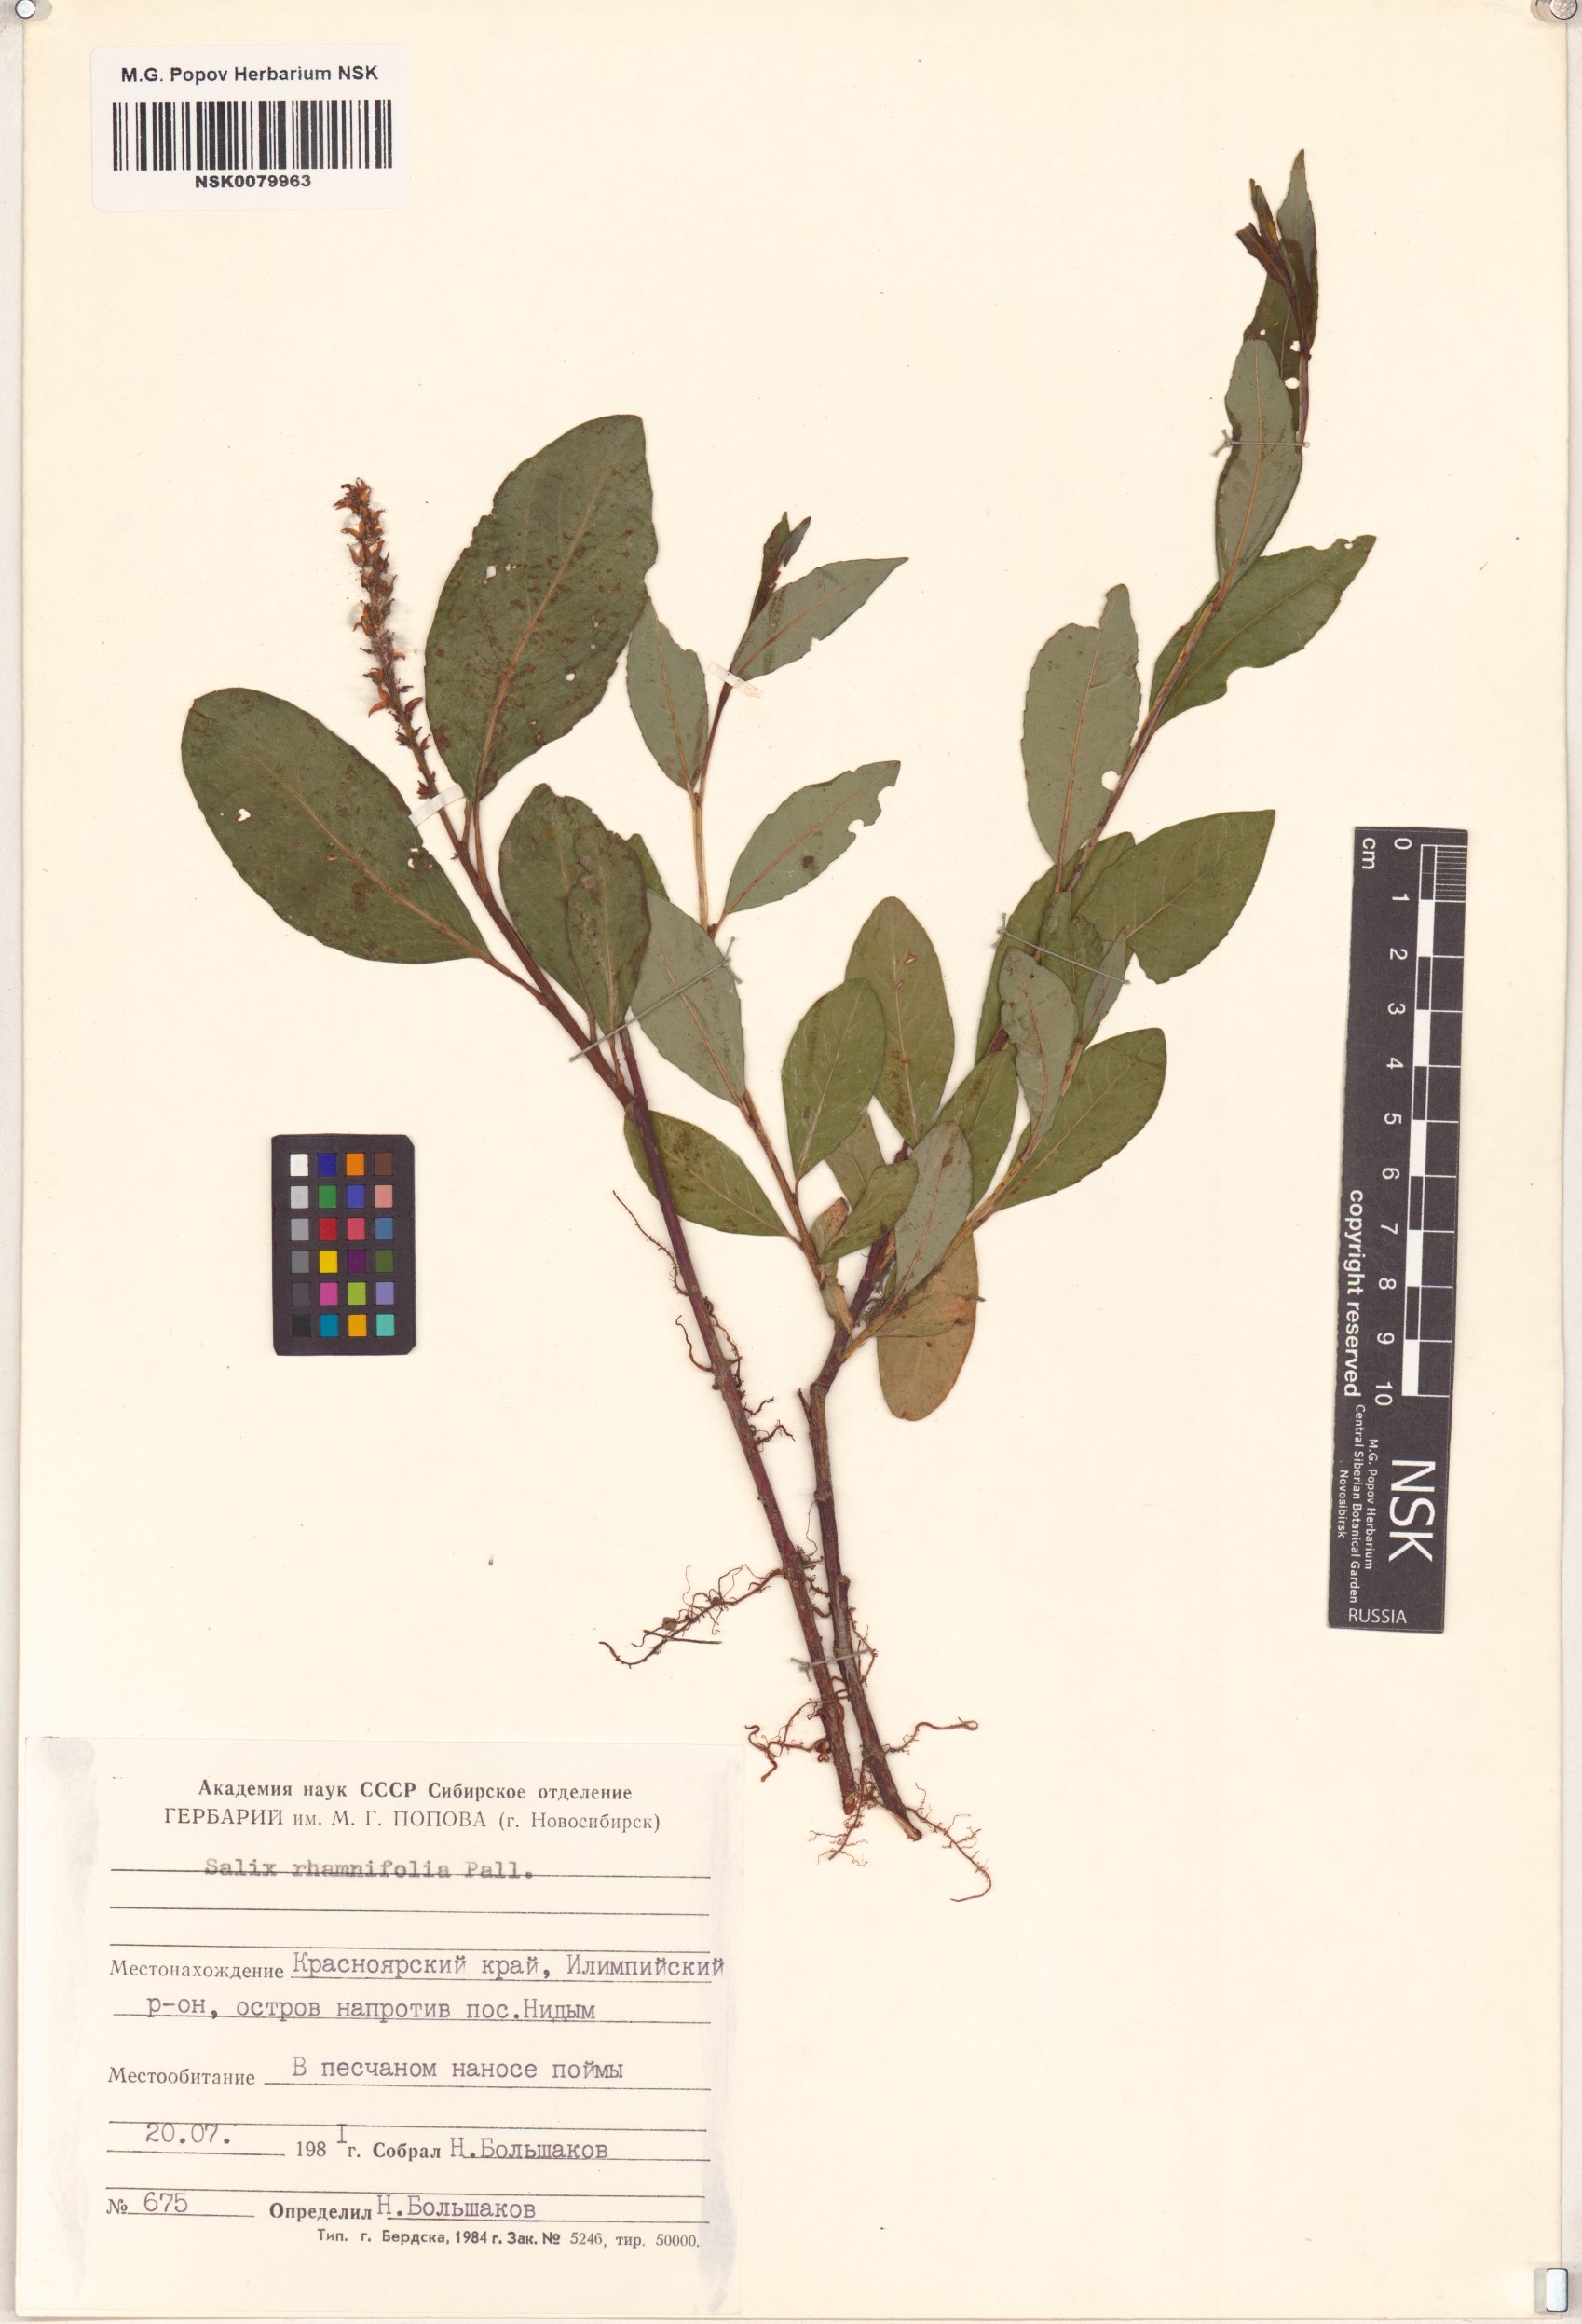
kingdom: Plantae
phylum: Tracheophyta
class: Magnoliopsida
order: Malpighiales
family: Salicaceae
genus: Salix
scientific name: Salix rhamnifolia
